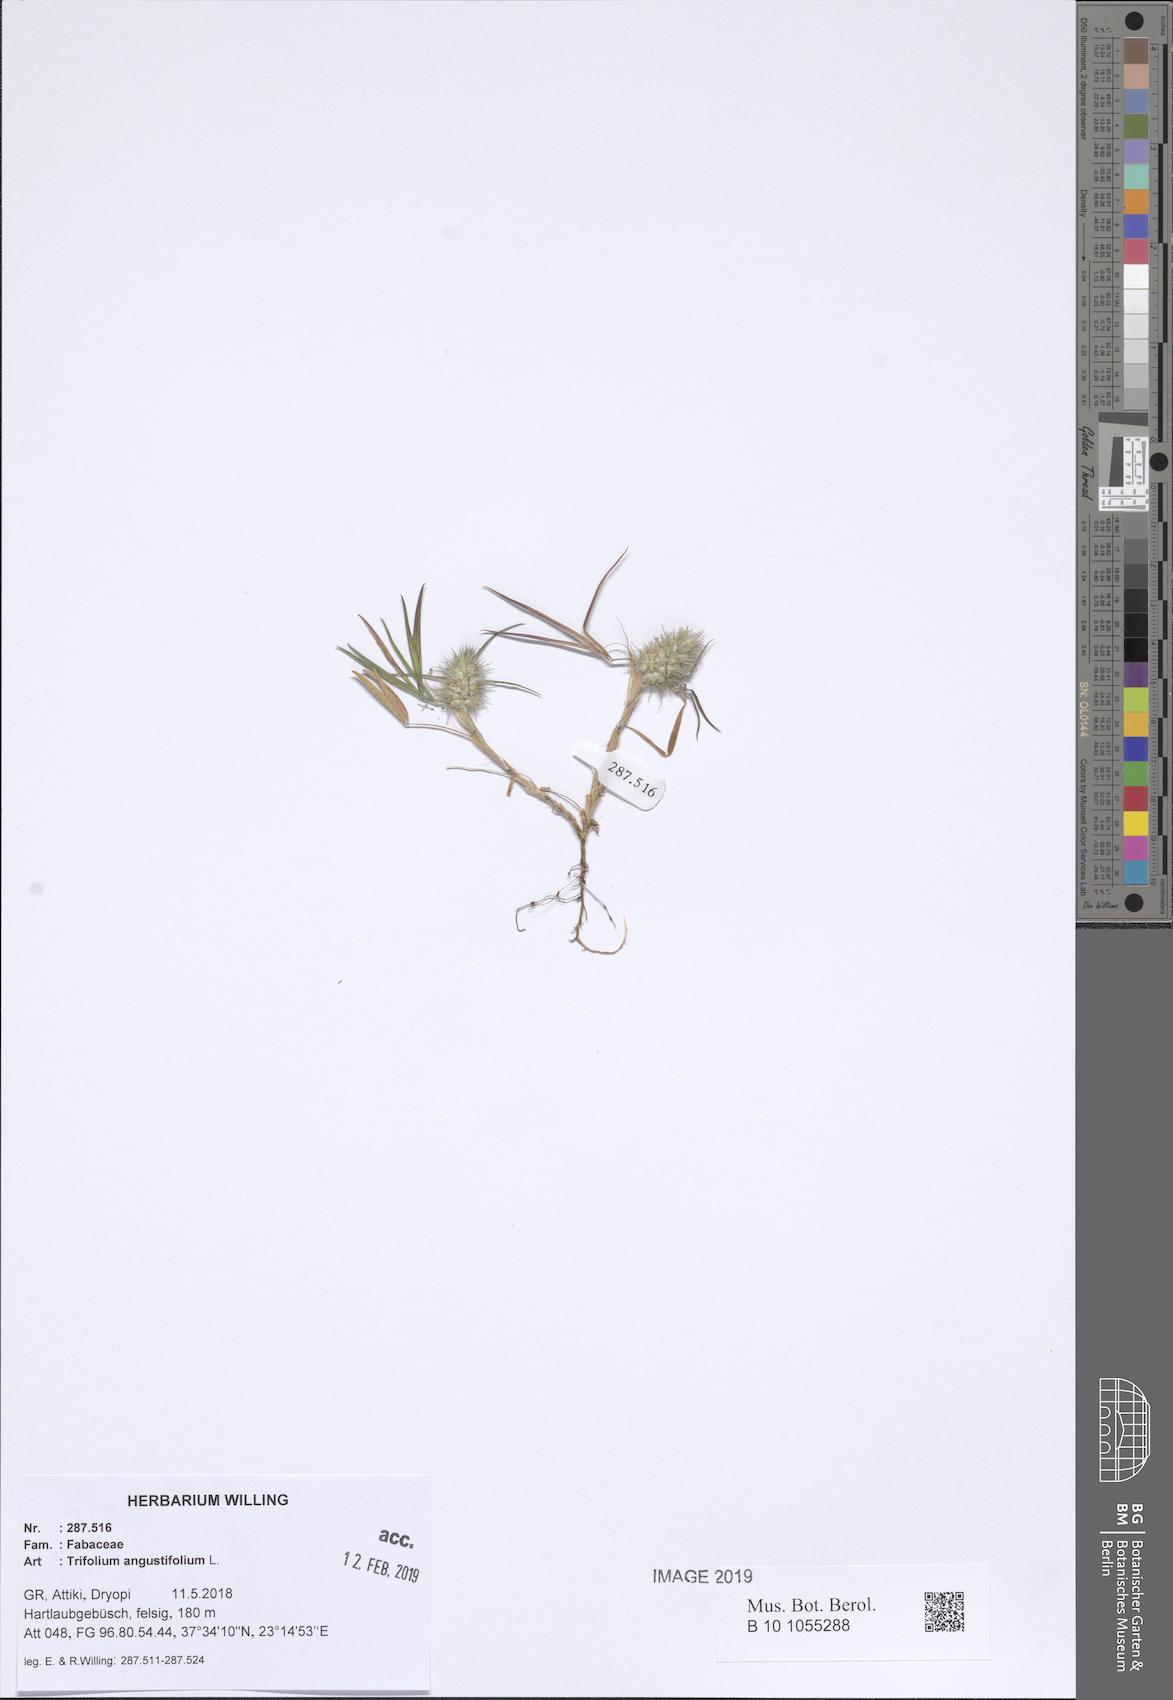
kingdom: Plantae
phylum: Tracheophyta
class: Magnoliopsida
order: Fabales
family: Fabaceae
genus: Trifolium
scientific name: Trifolium angustifolium
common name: Narrow clover
